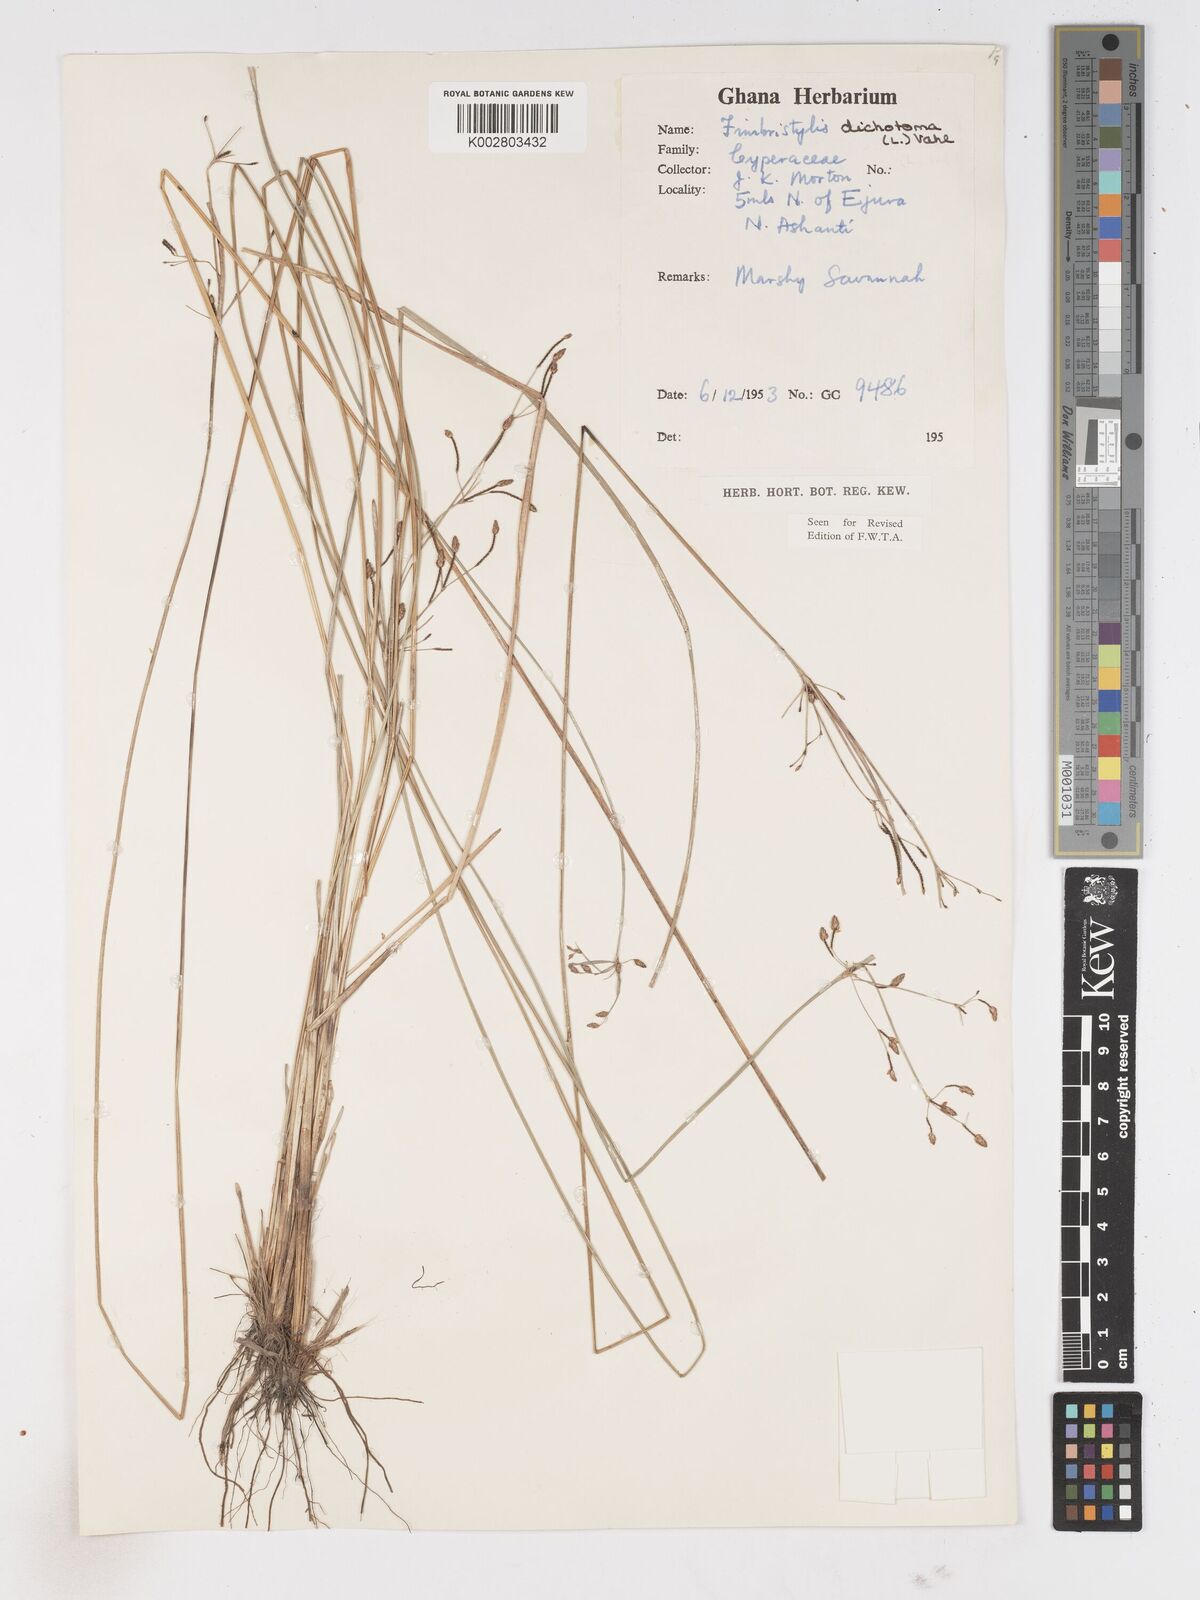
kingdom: Plantae
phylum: Tracheophyta
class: Liliopsida
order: Poales
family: Cyperaceae
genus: Fimbristylis
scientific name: Fimbristylis dichotoma
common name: Forked fimbry
